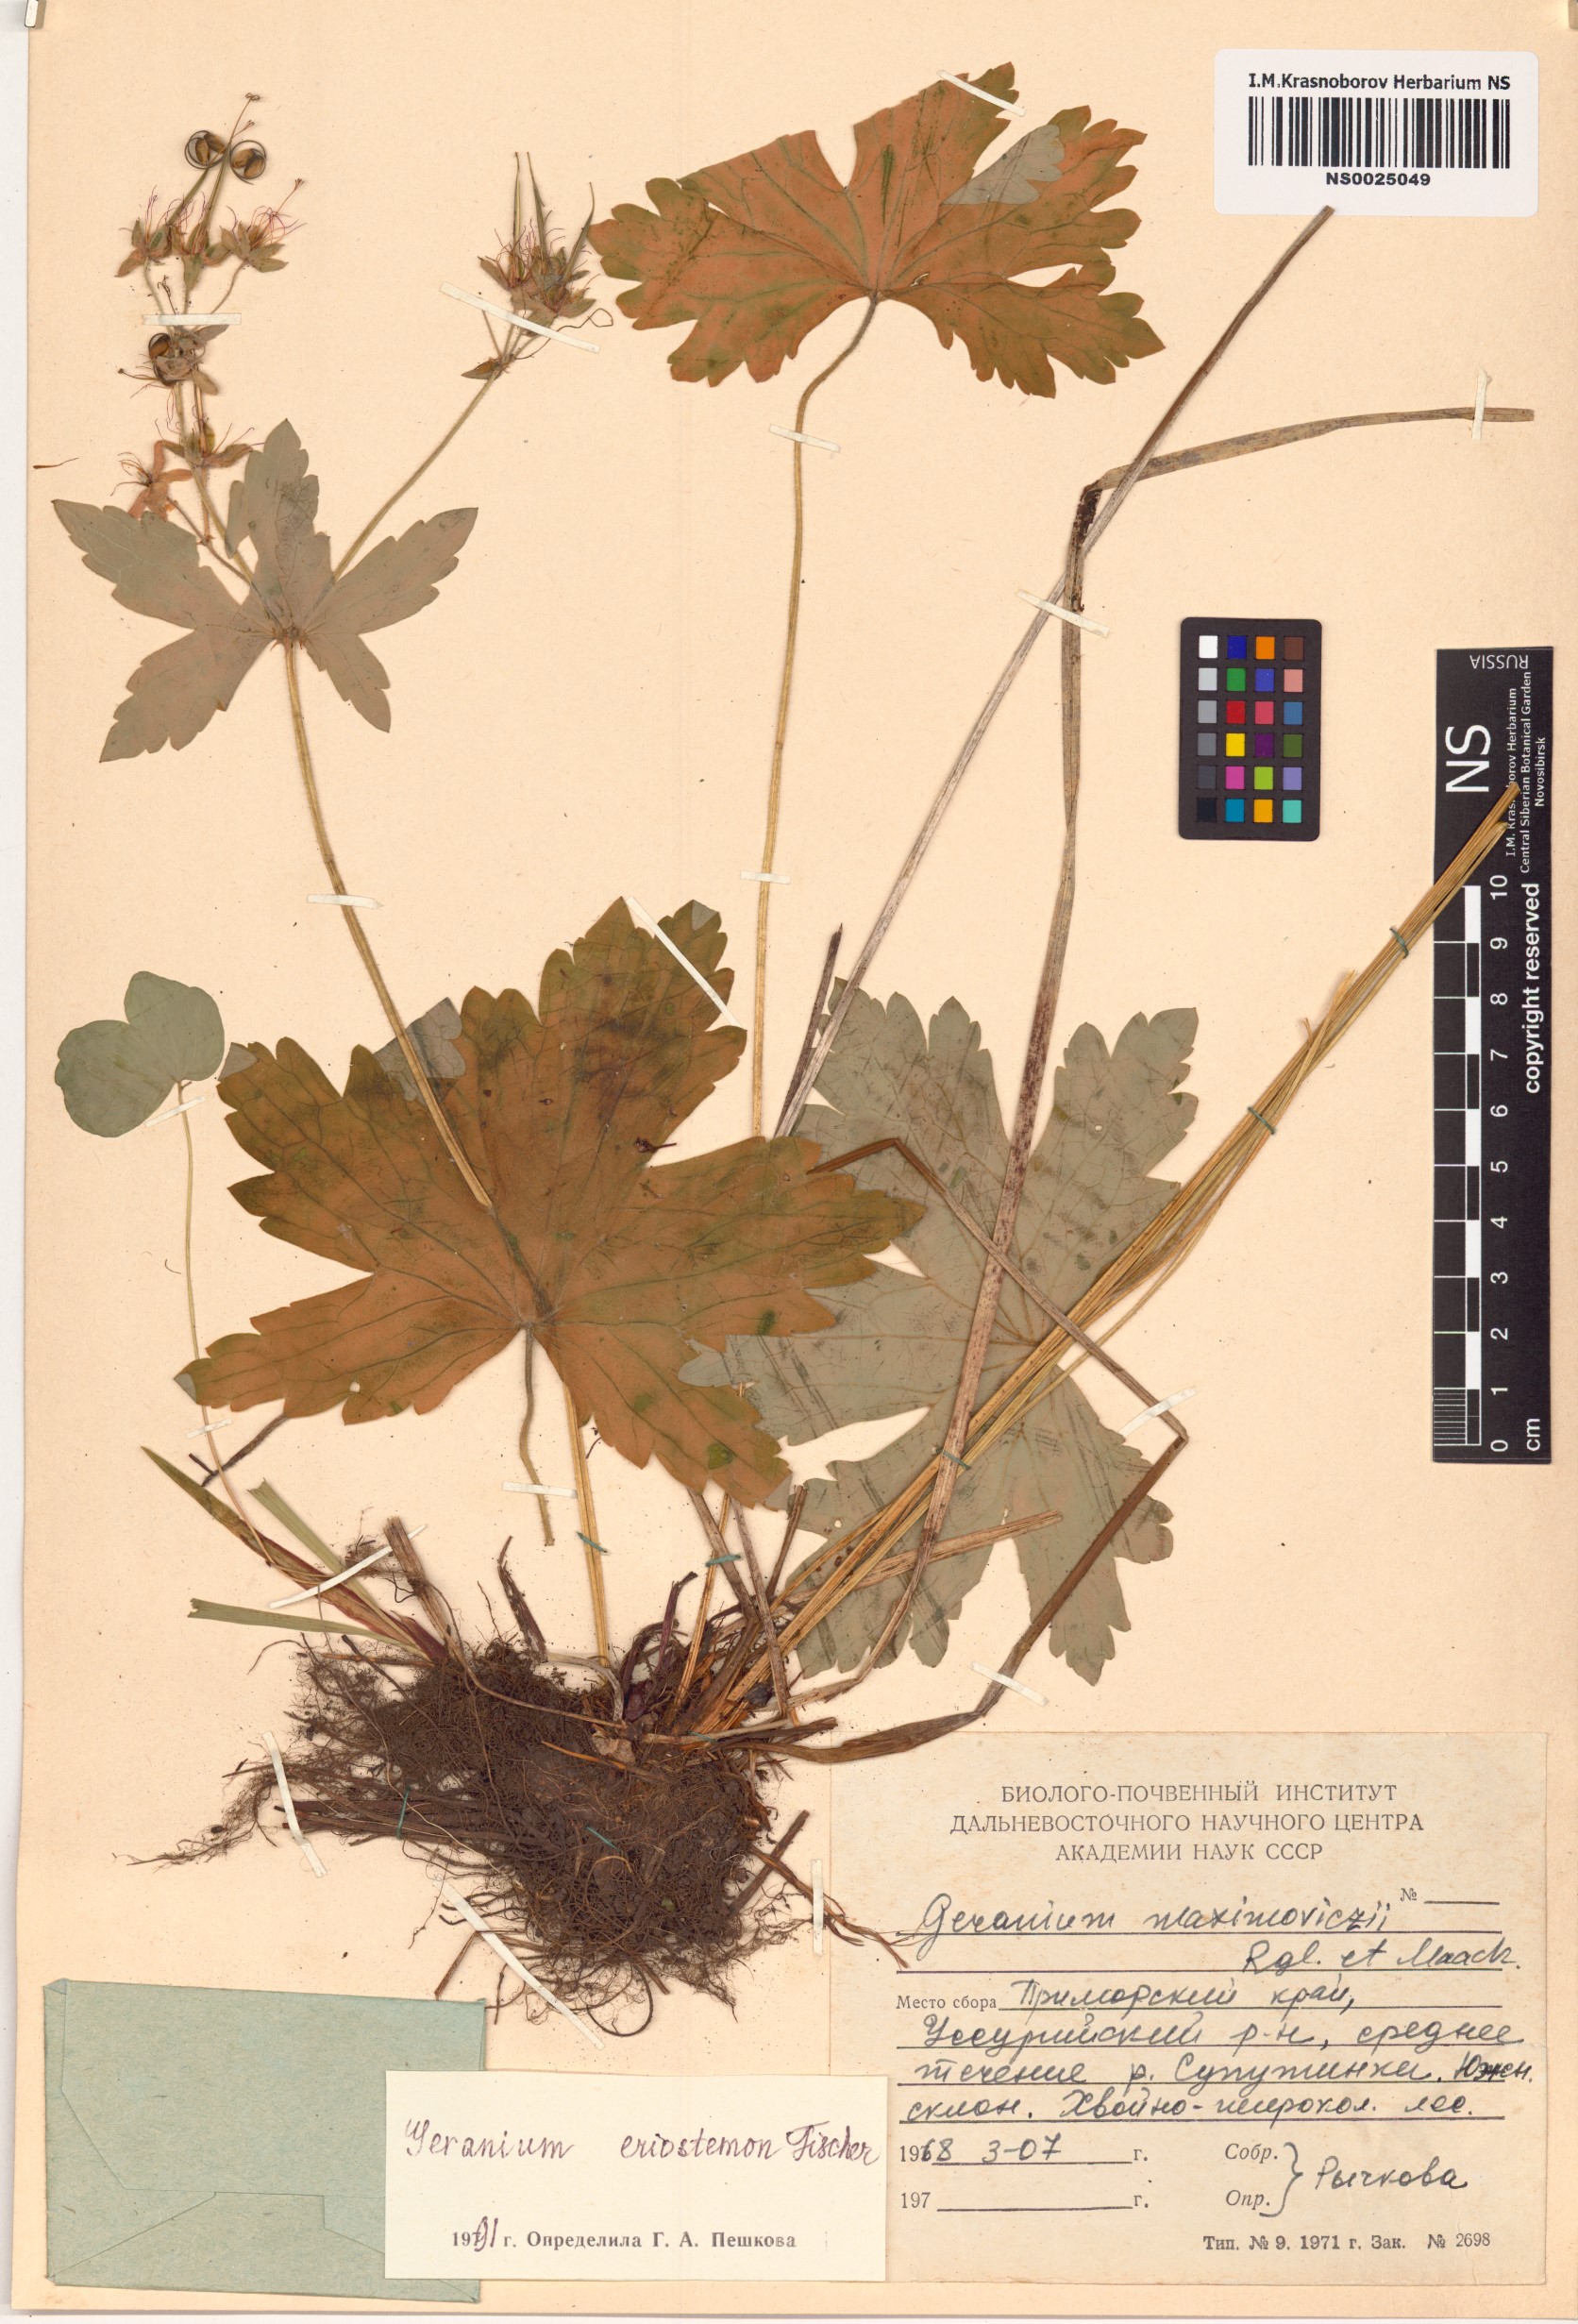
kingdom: Plantae
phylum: Tracheophyta
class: Magnoliopsida
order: Geraniales
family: Geraniaceae
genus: Geranium
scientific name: Geranium platyanthum
